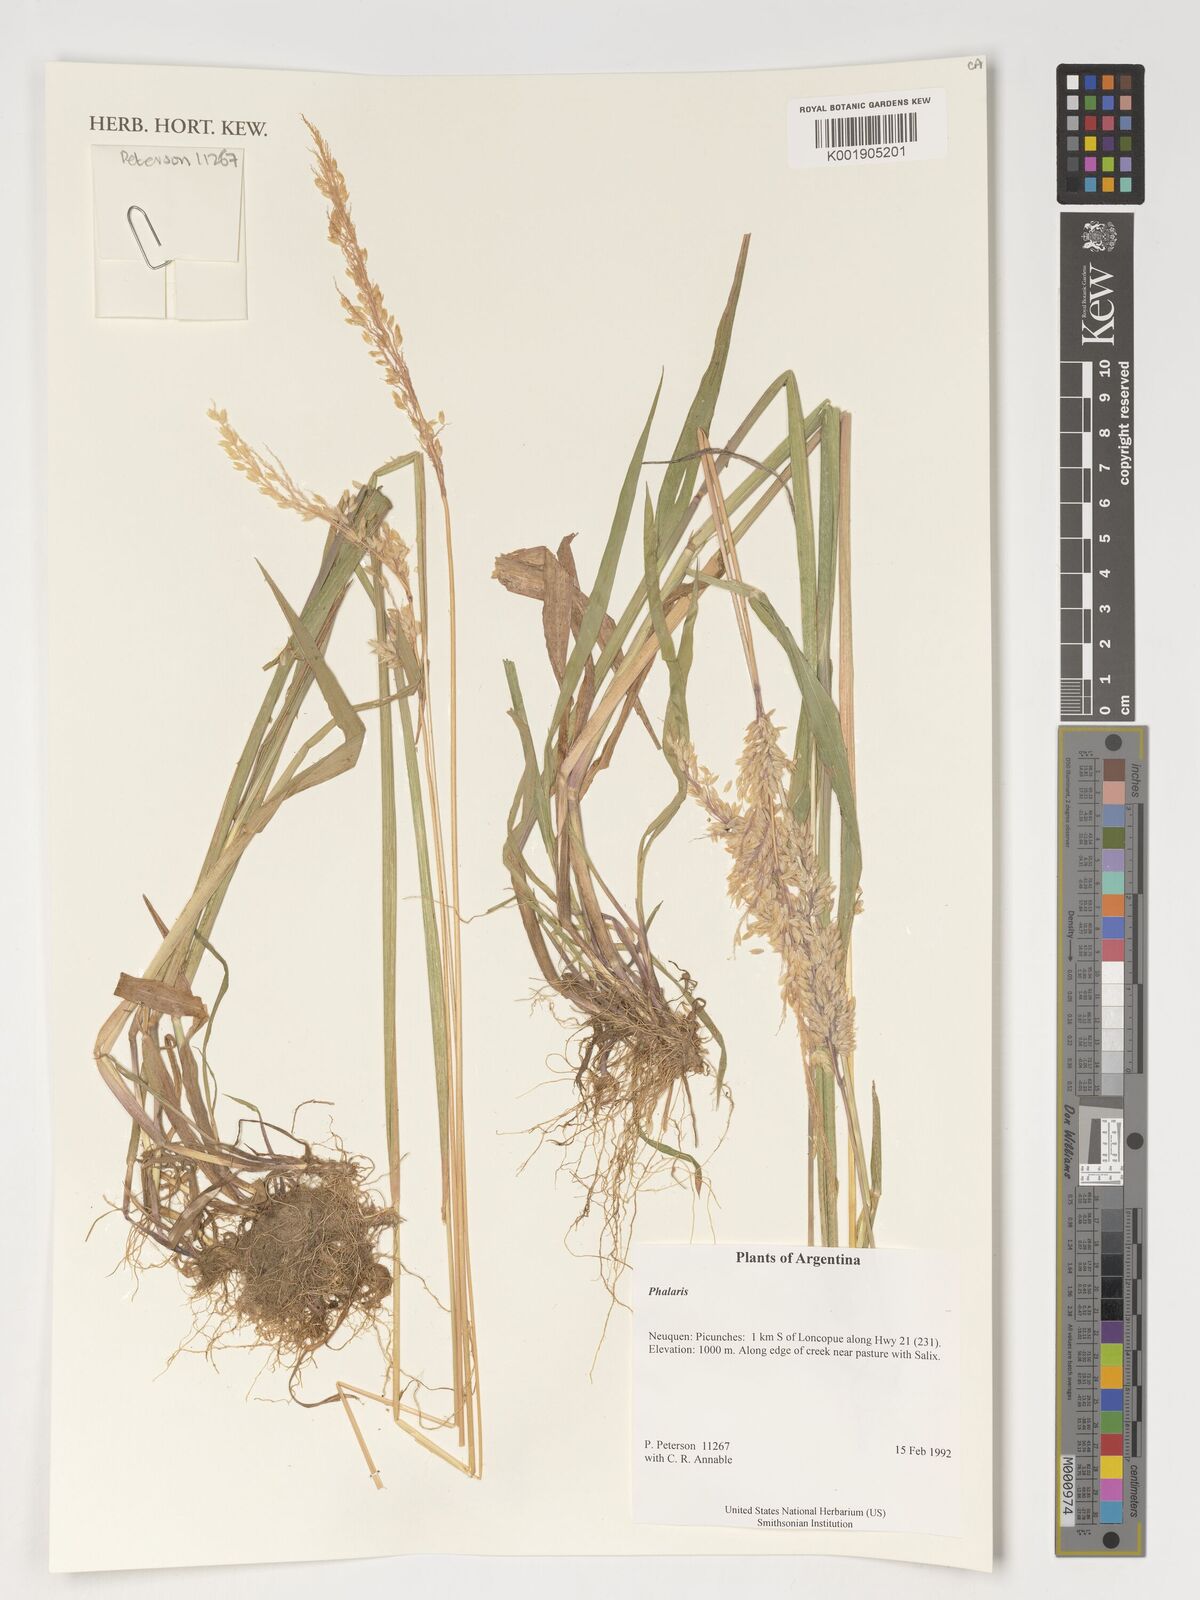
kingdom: Plantae
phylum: Tracheophyta
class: Liliopsida
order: Poales
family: Poaceae
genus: Phalaris
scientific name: Phalaris
